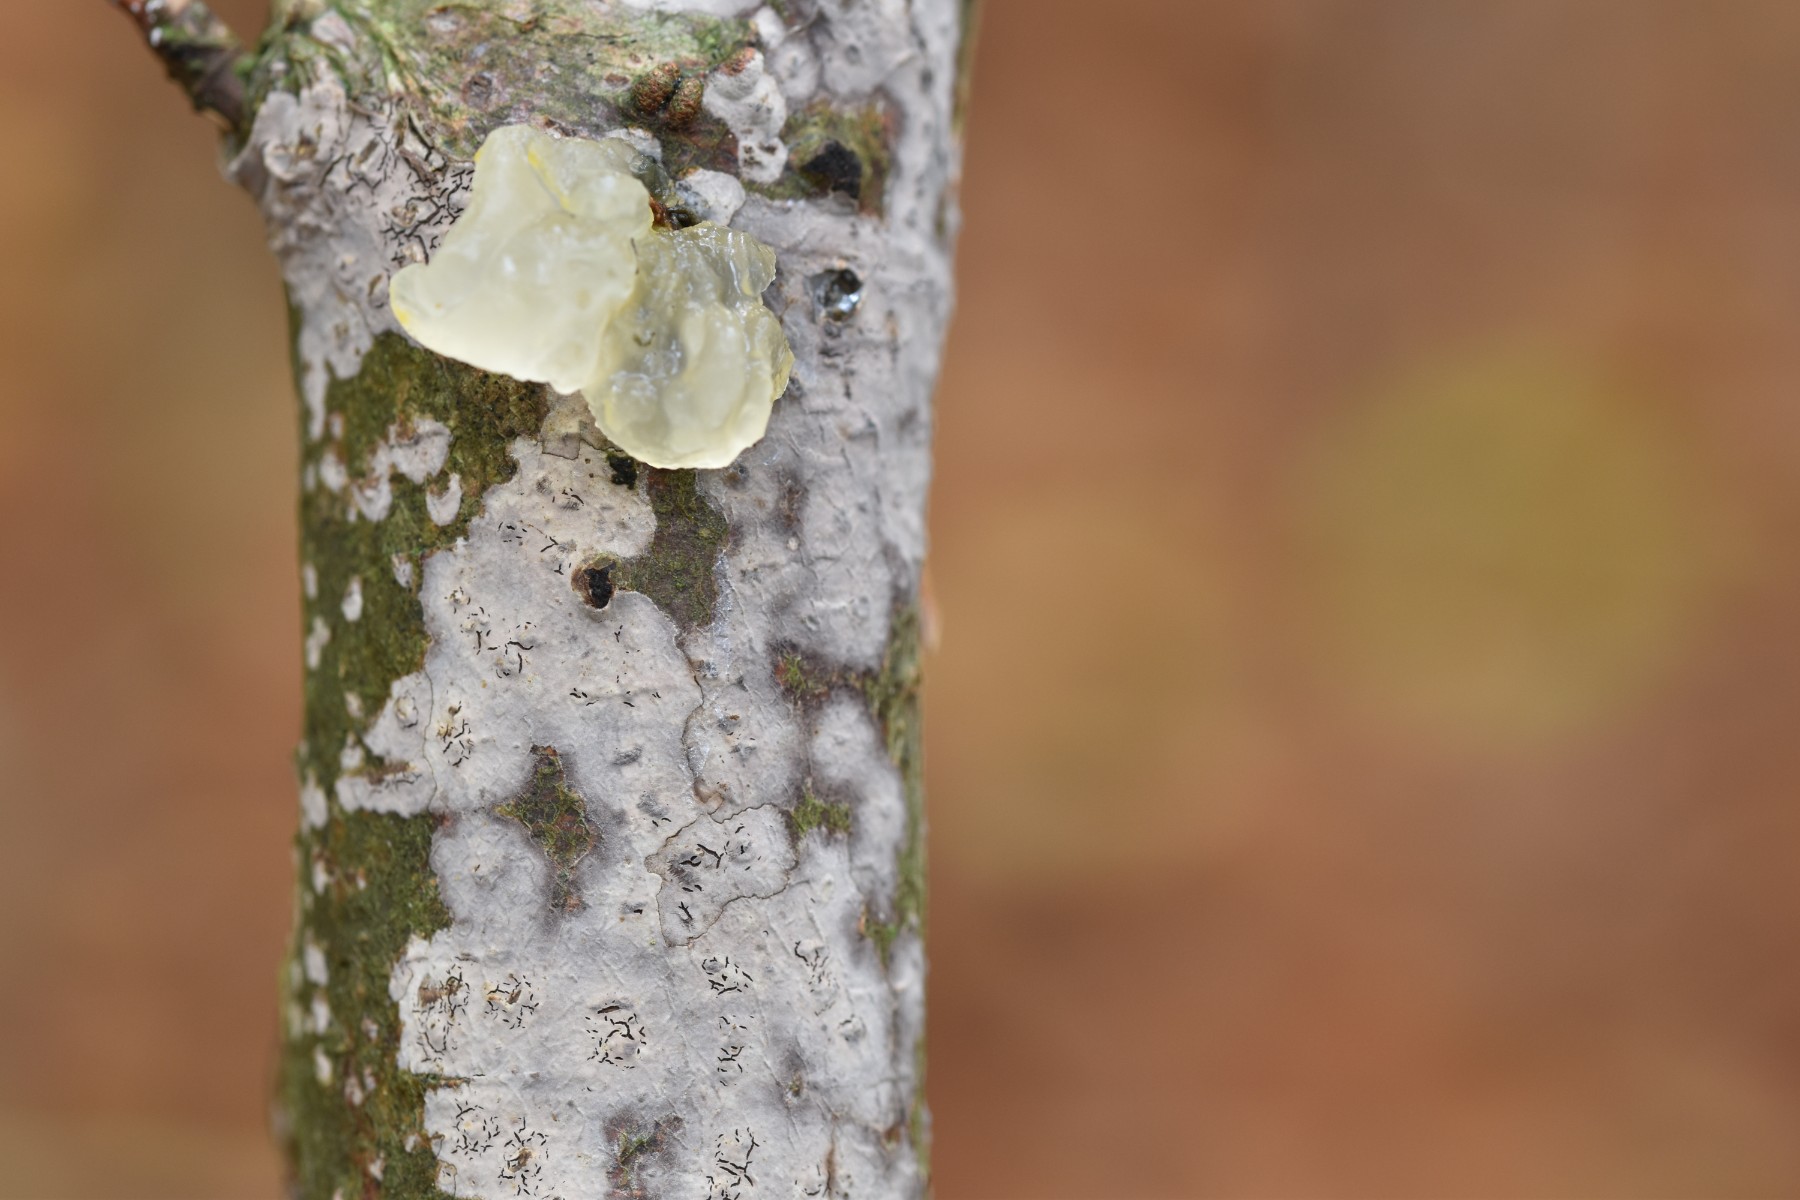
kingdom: Fungi
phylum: Basidiomycota
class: Tremellomycetes
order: Tremellales
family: Tremellaceae
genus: Tremella
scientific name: Tremella mesenterica
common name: gul bævresvamp
